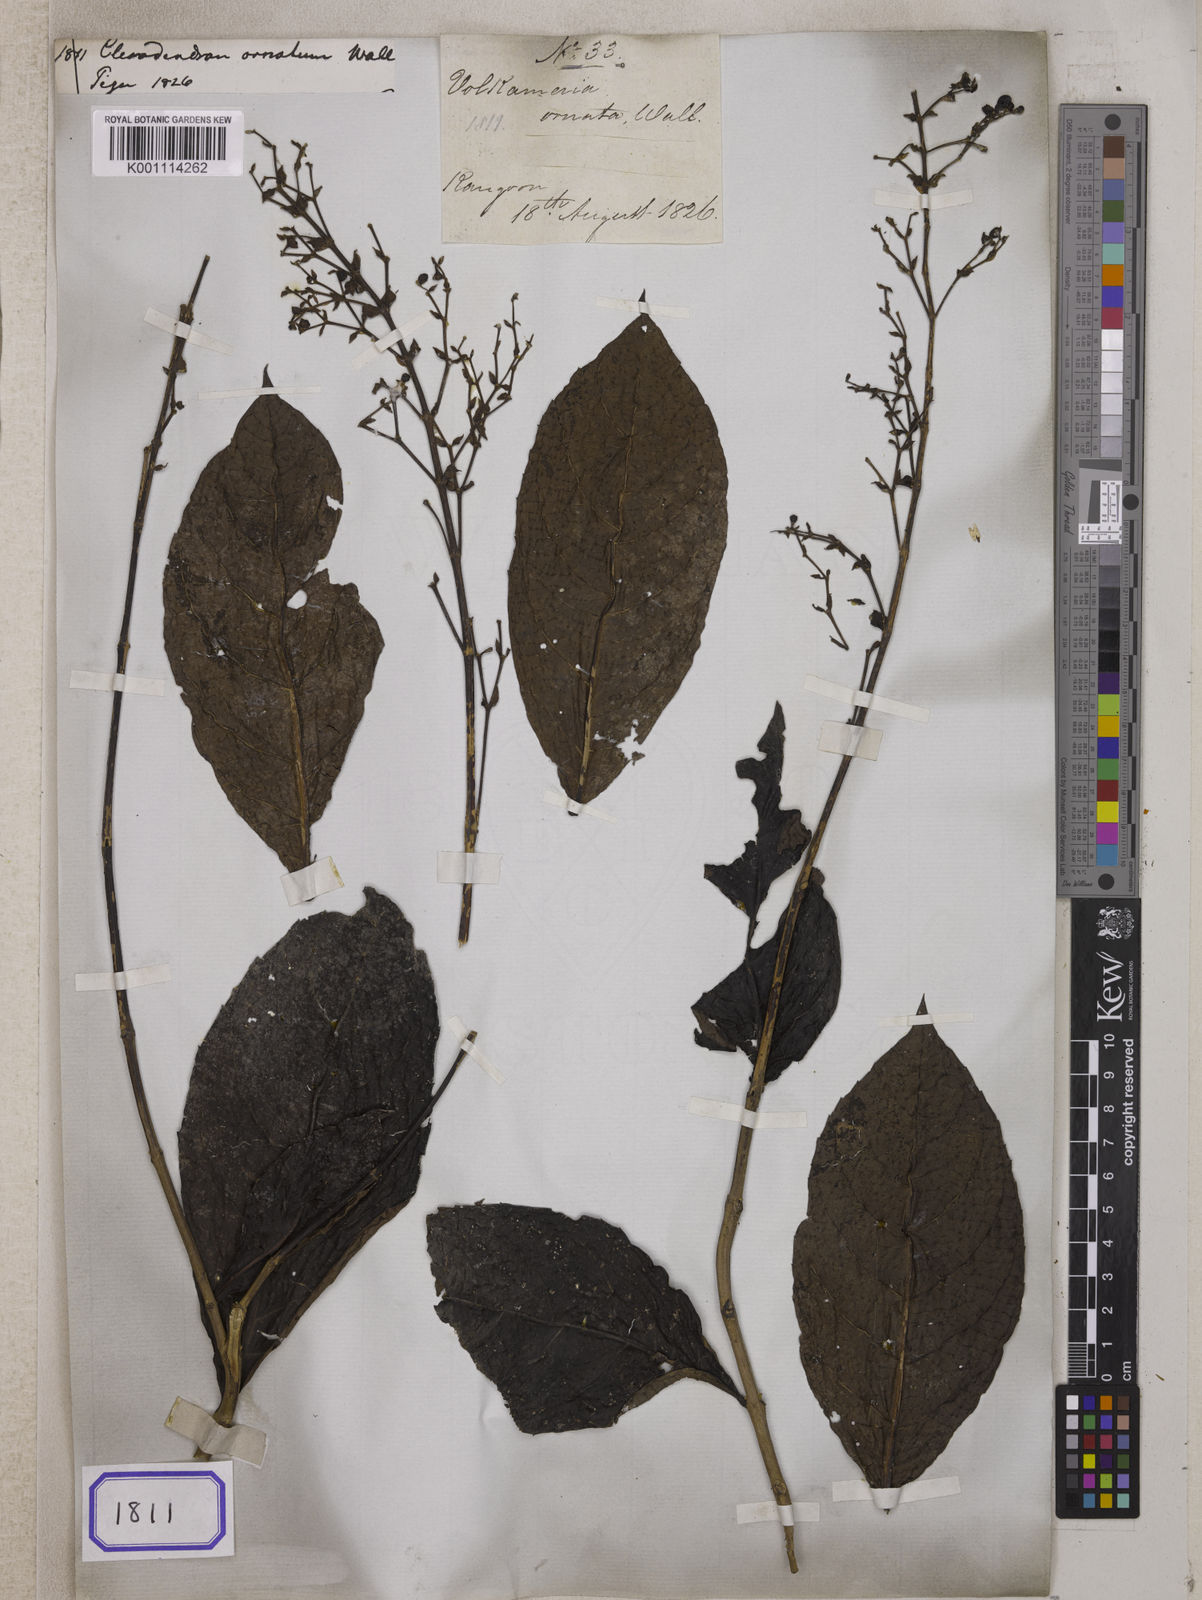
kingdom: Plantae
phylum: Tracheophyta
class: Magnoliopsida
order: Lamiales
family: Lamiaceae
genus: Rotheca
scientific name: Rotheca serrata
